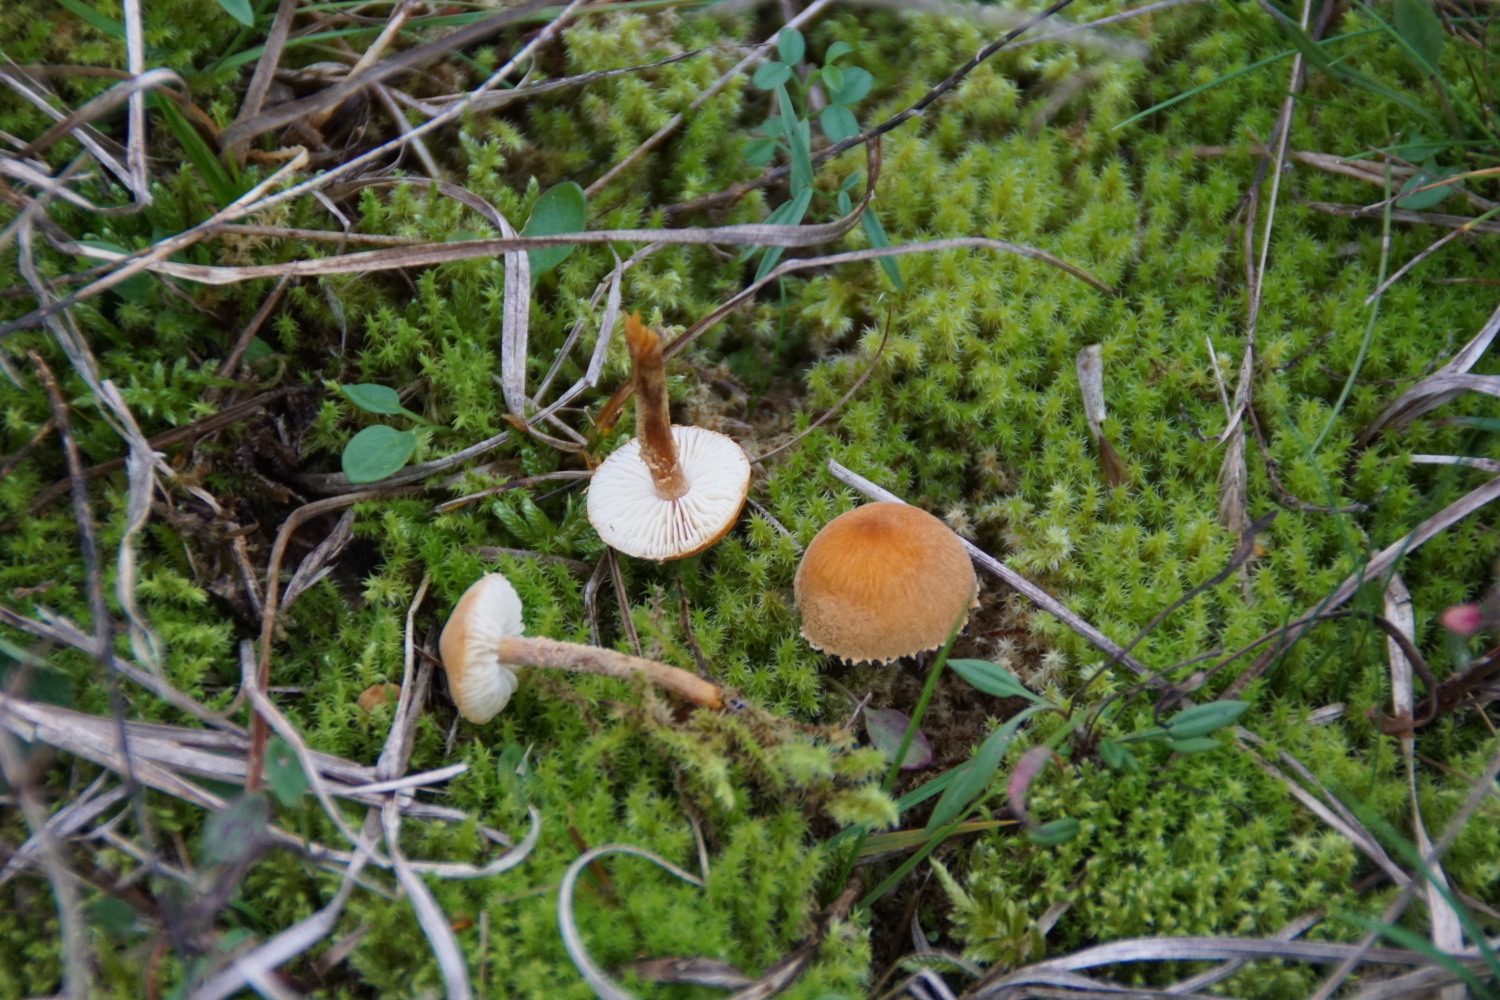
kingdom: Fungi
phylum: Basidiomycota
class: Agaricomycetes
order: Agaricales
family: Tricholomataceae
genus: Cystoderma
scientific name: Cystoderma
